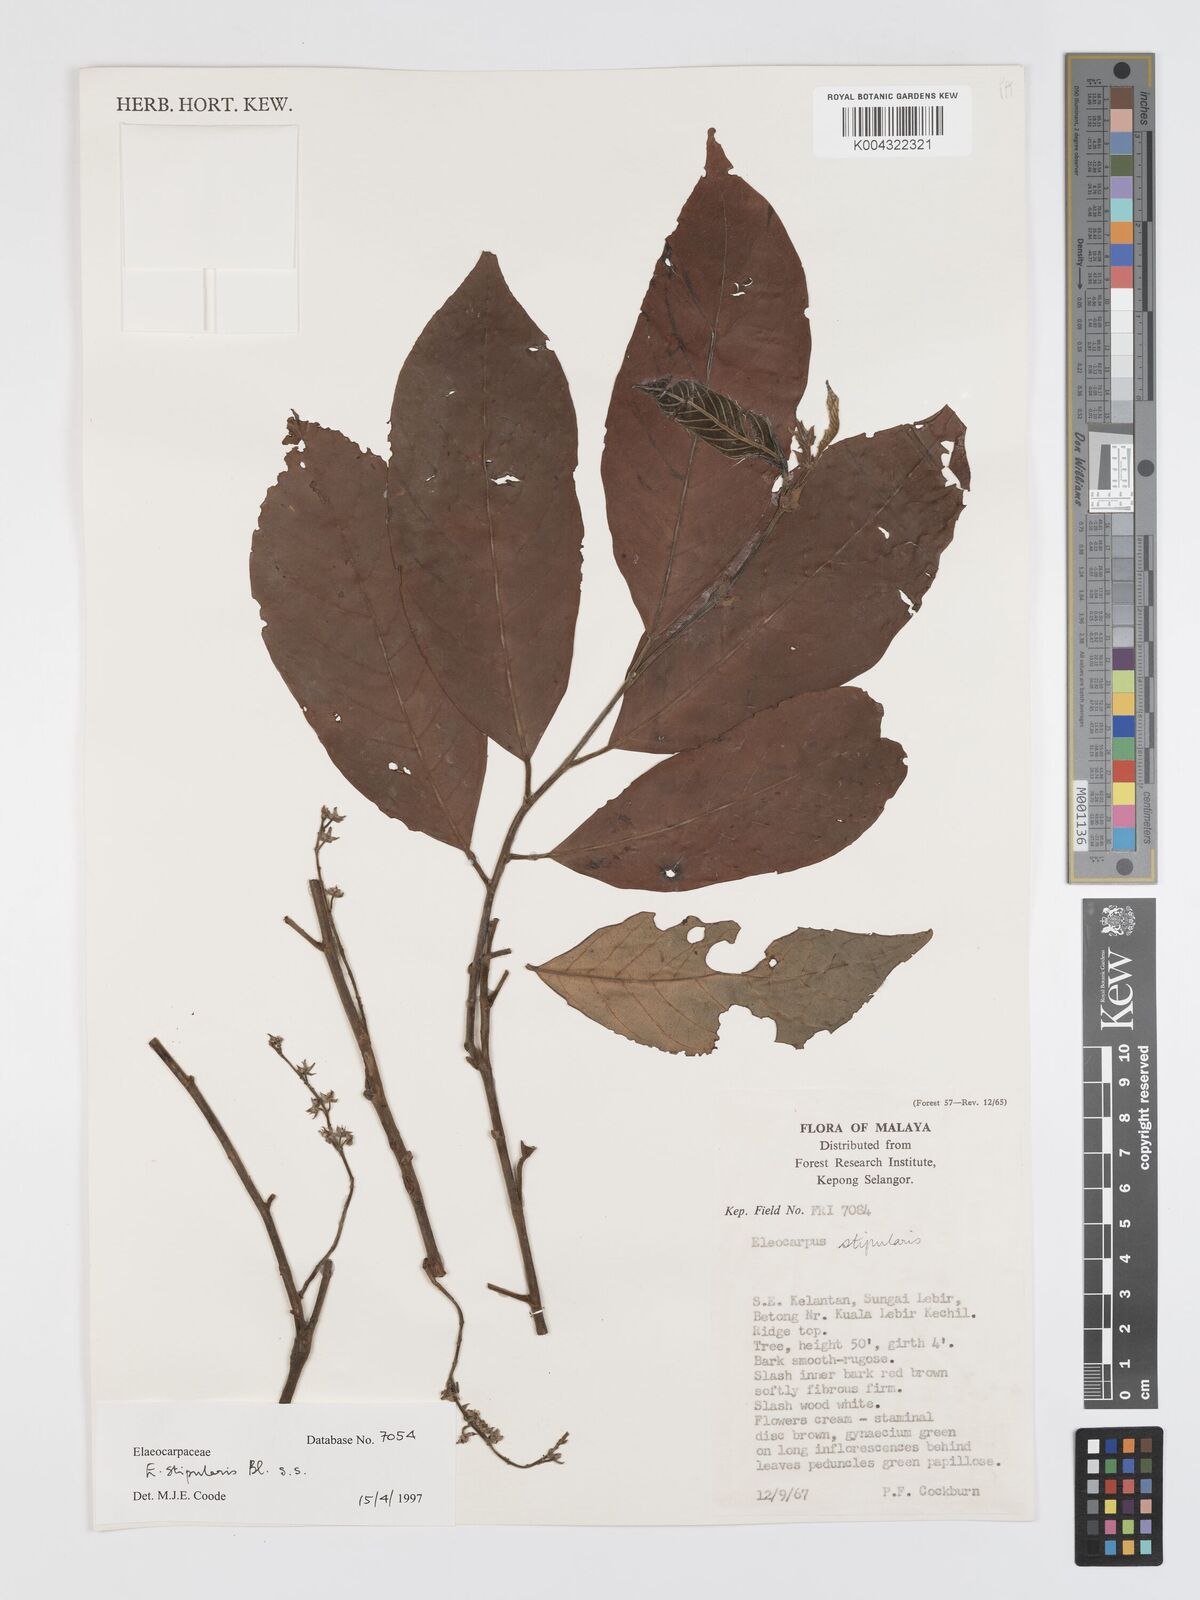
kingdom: Plantae
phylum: Tracheophyta
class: Magnoliopsida
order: Oxalidales
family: Elaeocarpaceae
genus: Elaeocarpus
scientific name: Elaeocarpus stipularis
